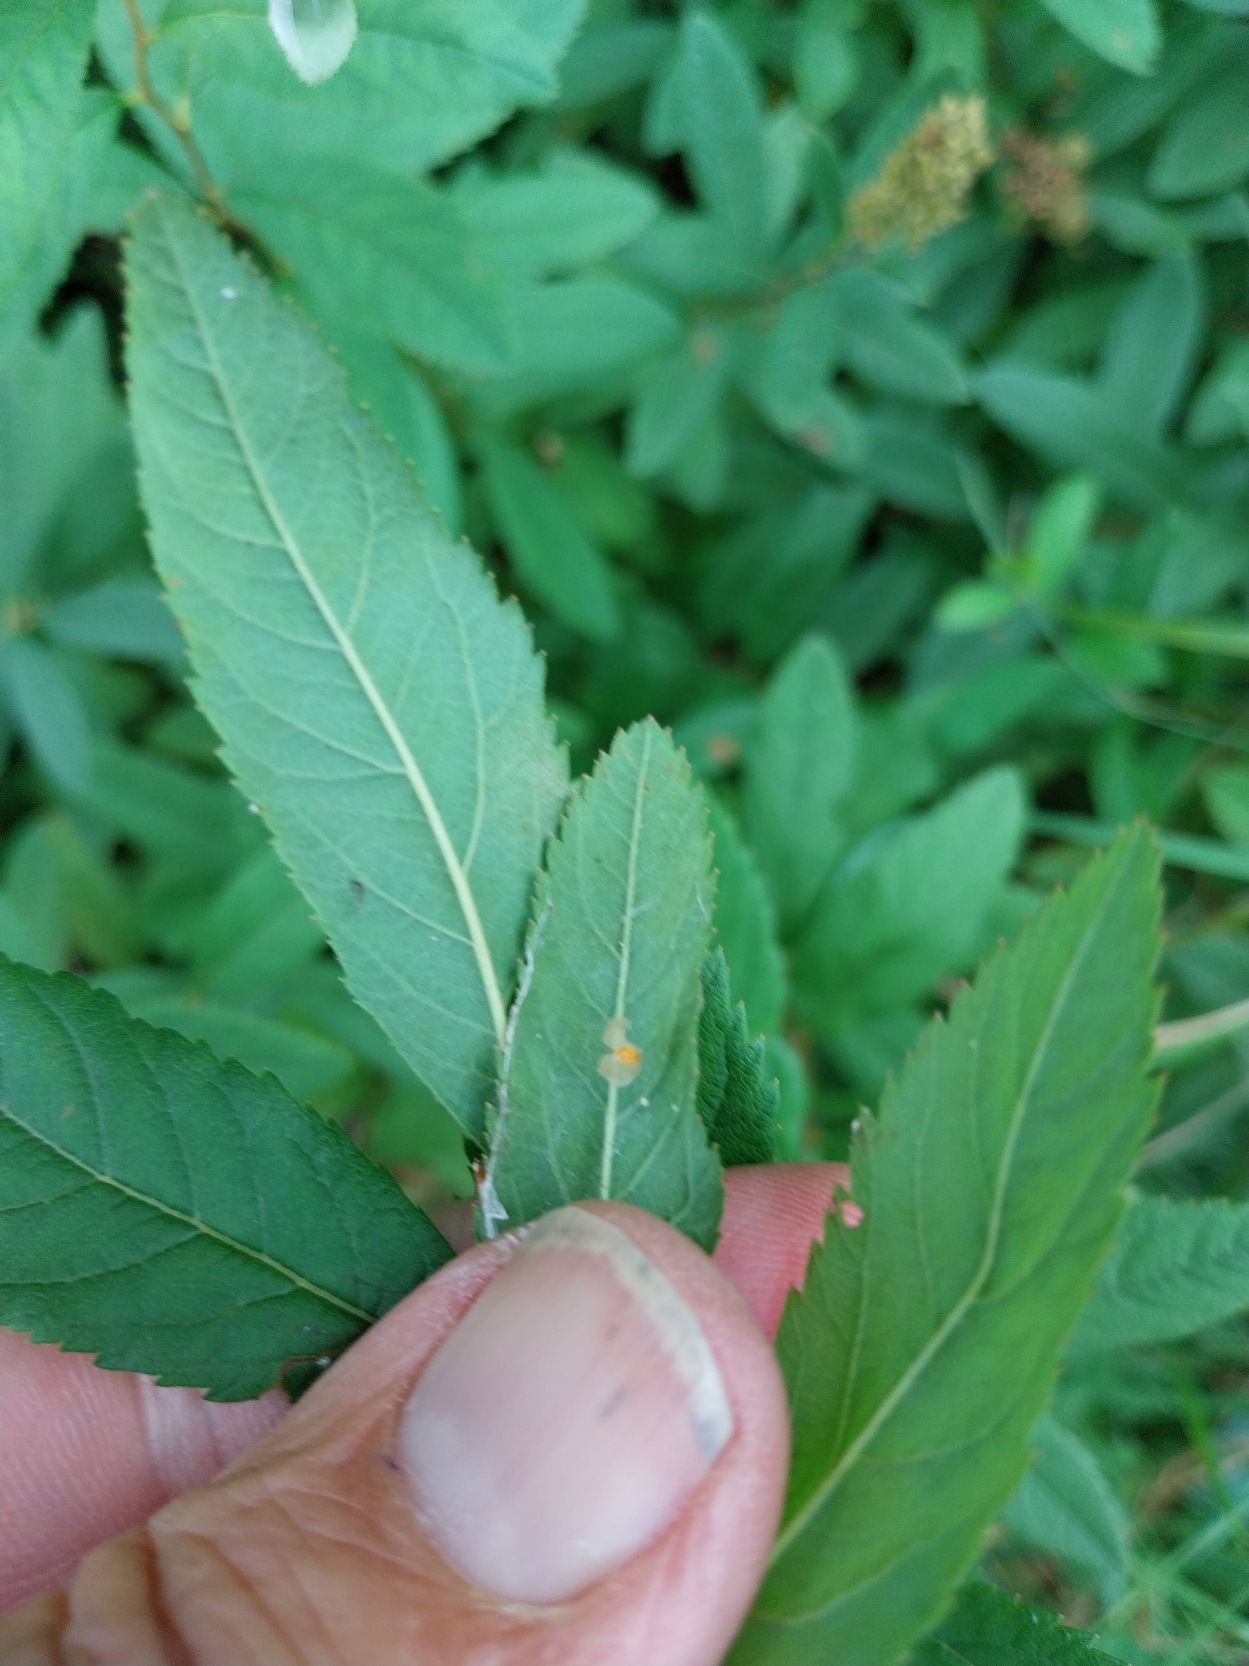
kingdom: Plantae
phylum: Tracheophyta
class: Magnoliopsida
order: Rosales
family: Rosaceae
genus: Spiraea
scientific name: Spiraea billardii
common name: Klase-spiræa
